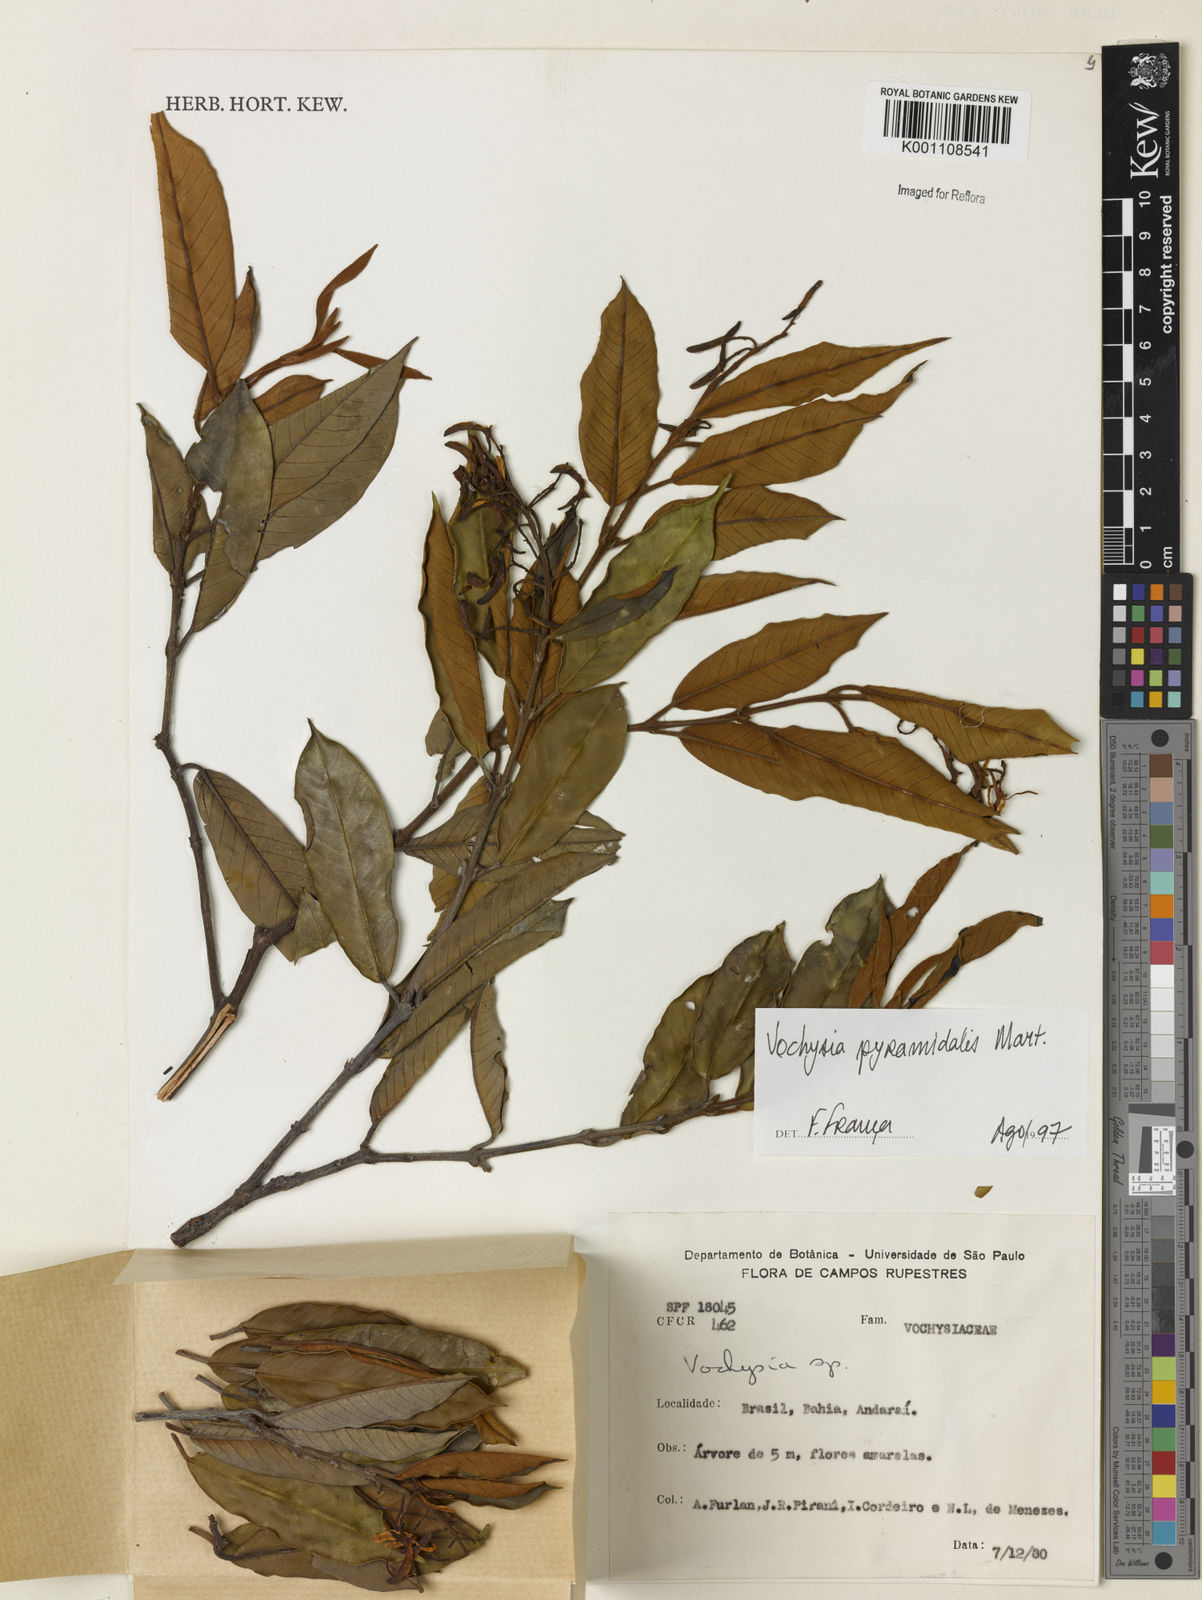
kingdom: Plantae
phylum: Tracheophyta
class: Magnoliopsida
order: Myrtales
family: Vochysiaceae
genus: Vochysia
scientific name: Vochysia pyramidalis
